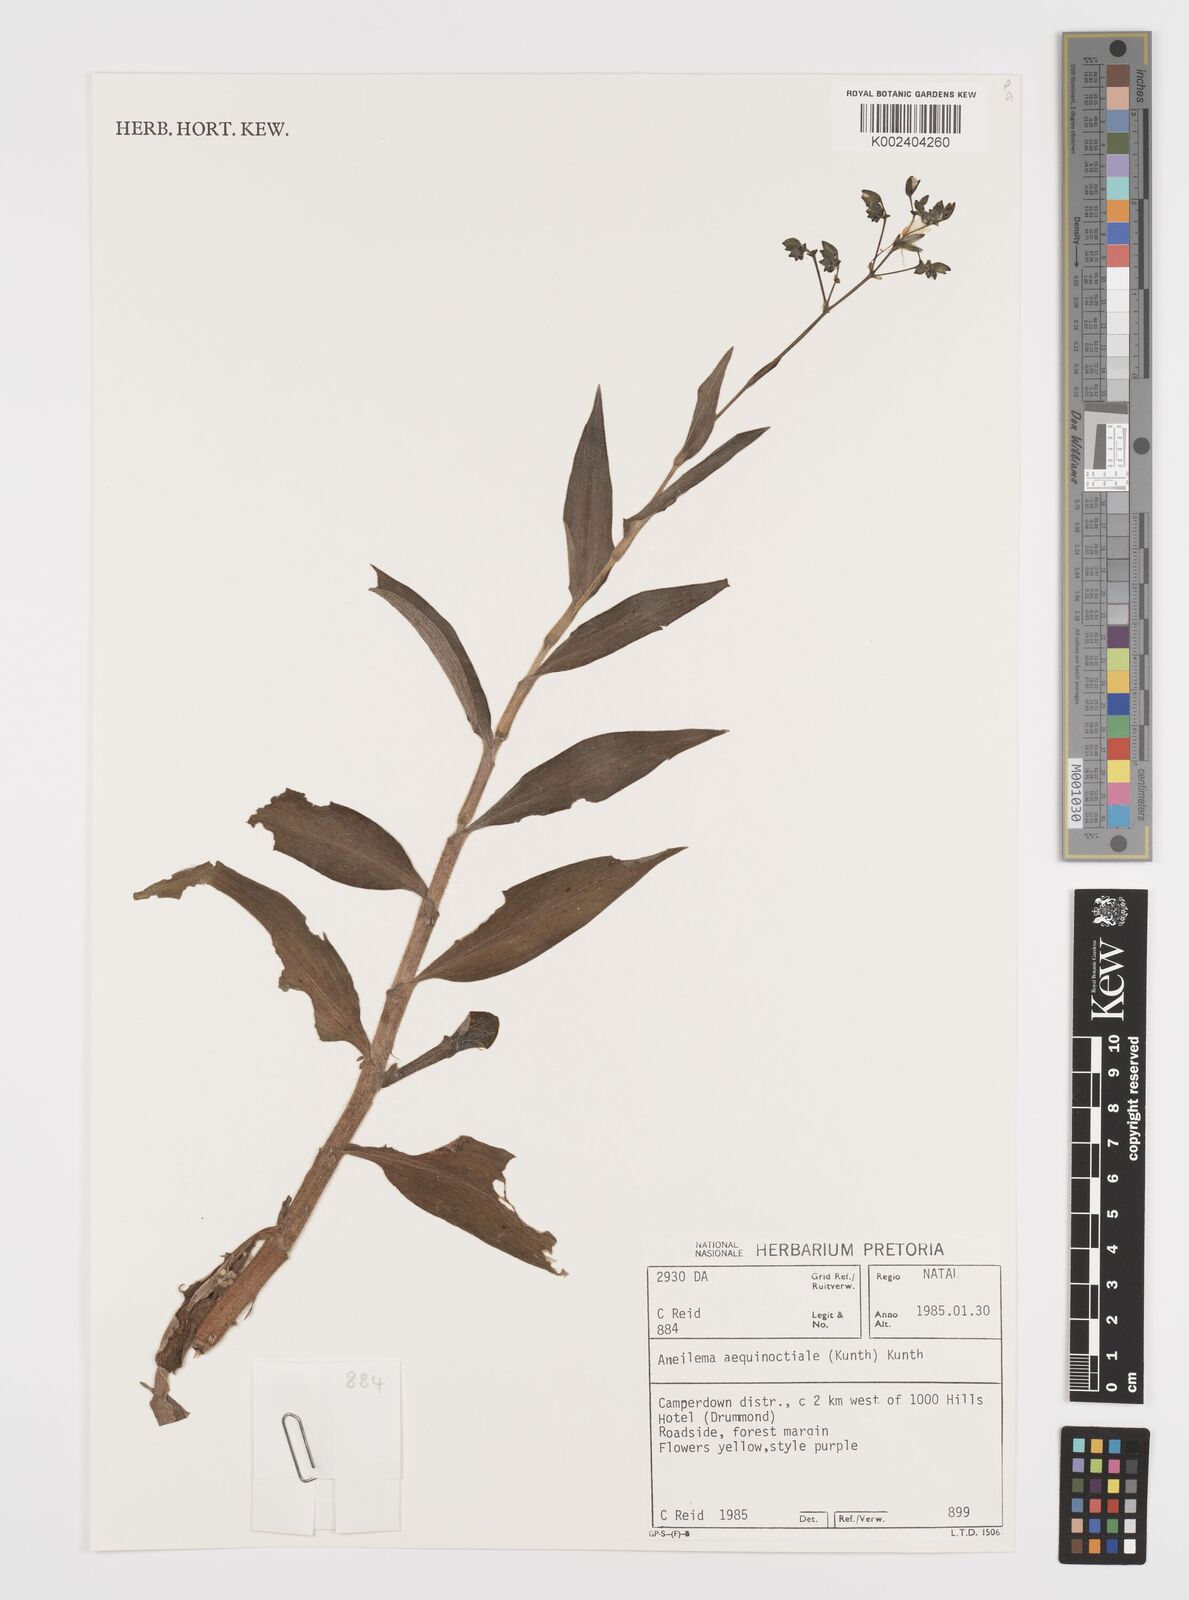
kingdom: Plantae
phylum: Tracheophyta
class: Liliopsida
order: Commelinales
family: Commelinaceae
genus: Aneilema
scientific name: Aneilema aequinoctiale
